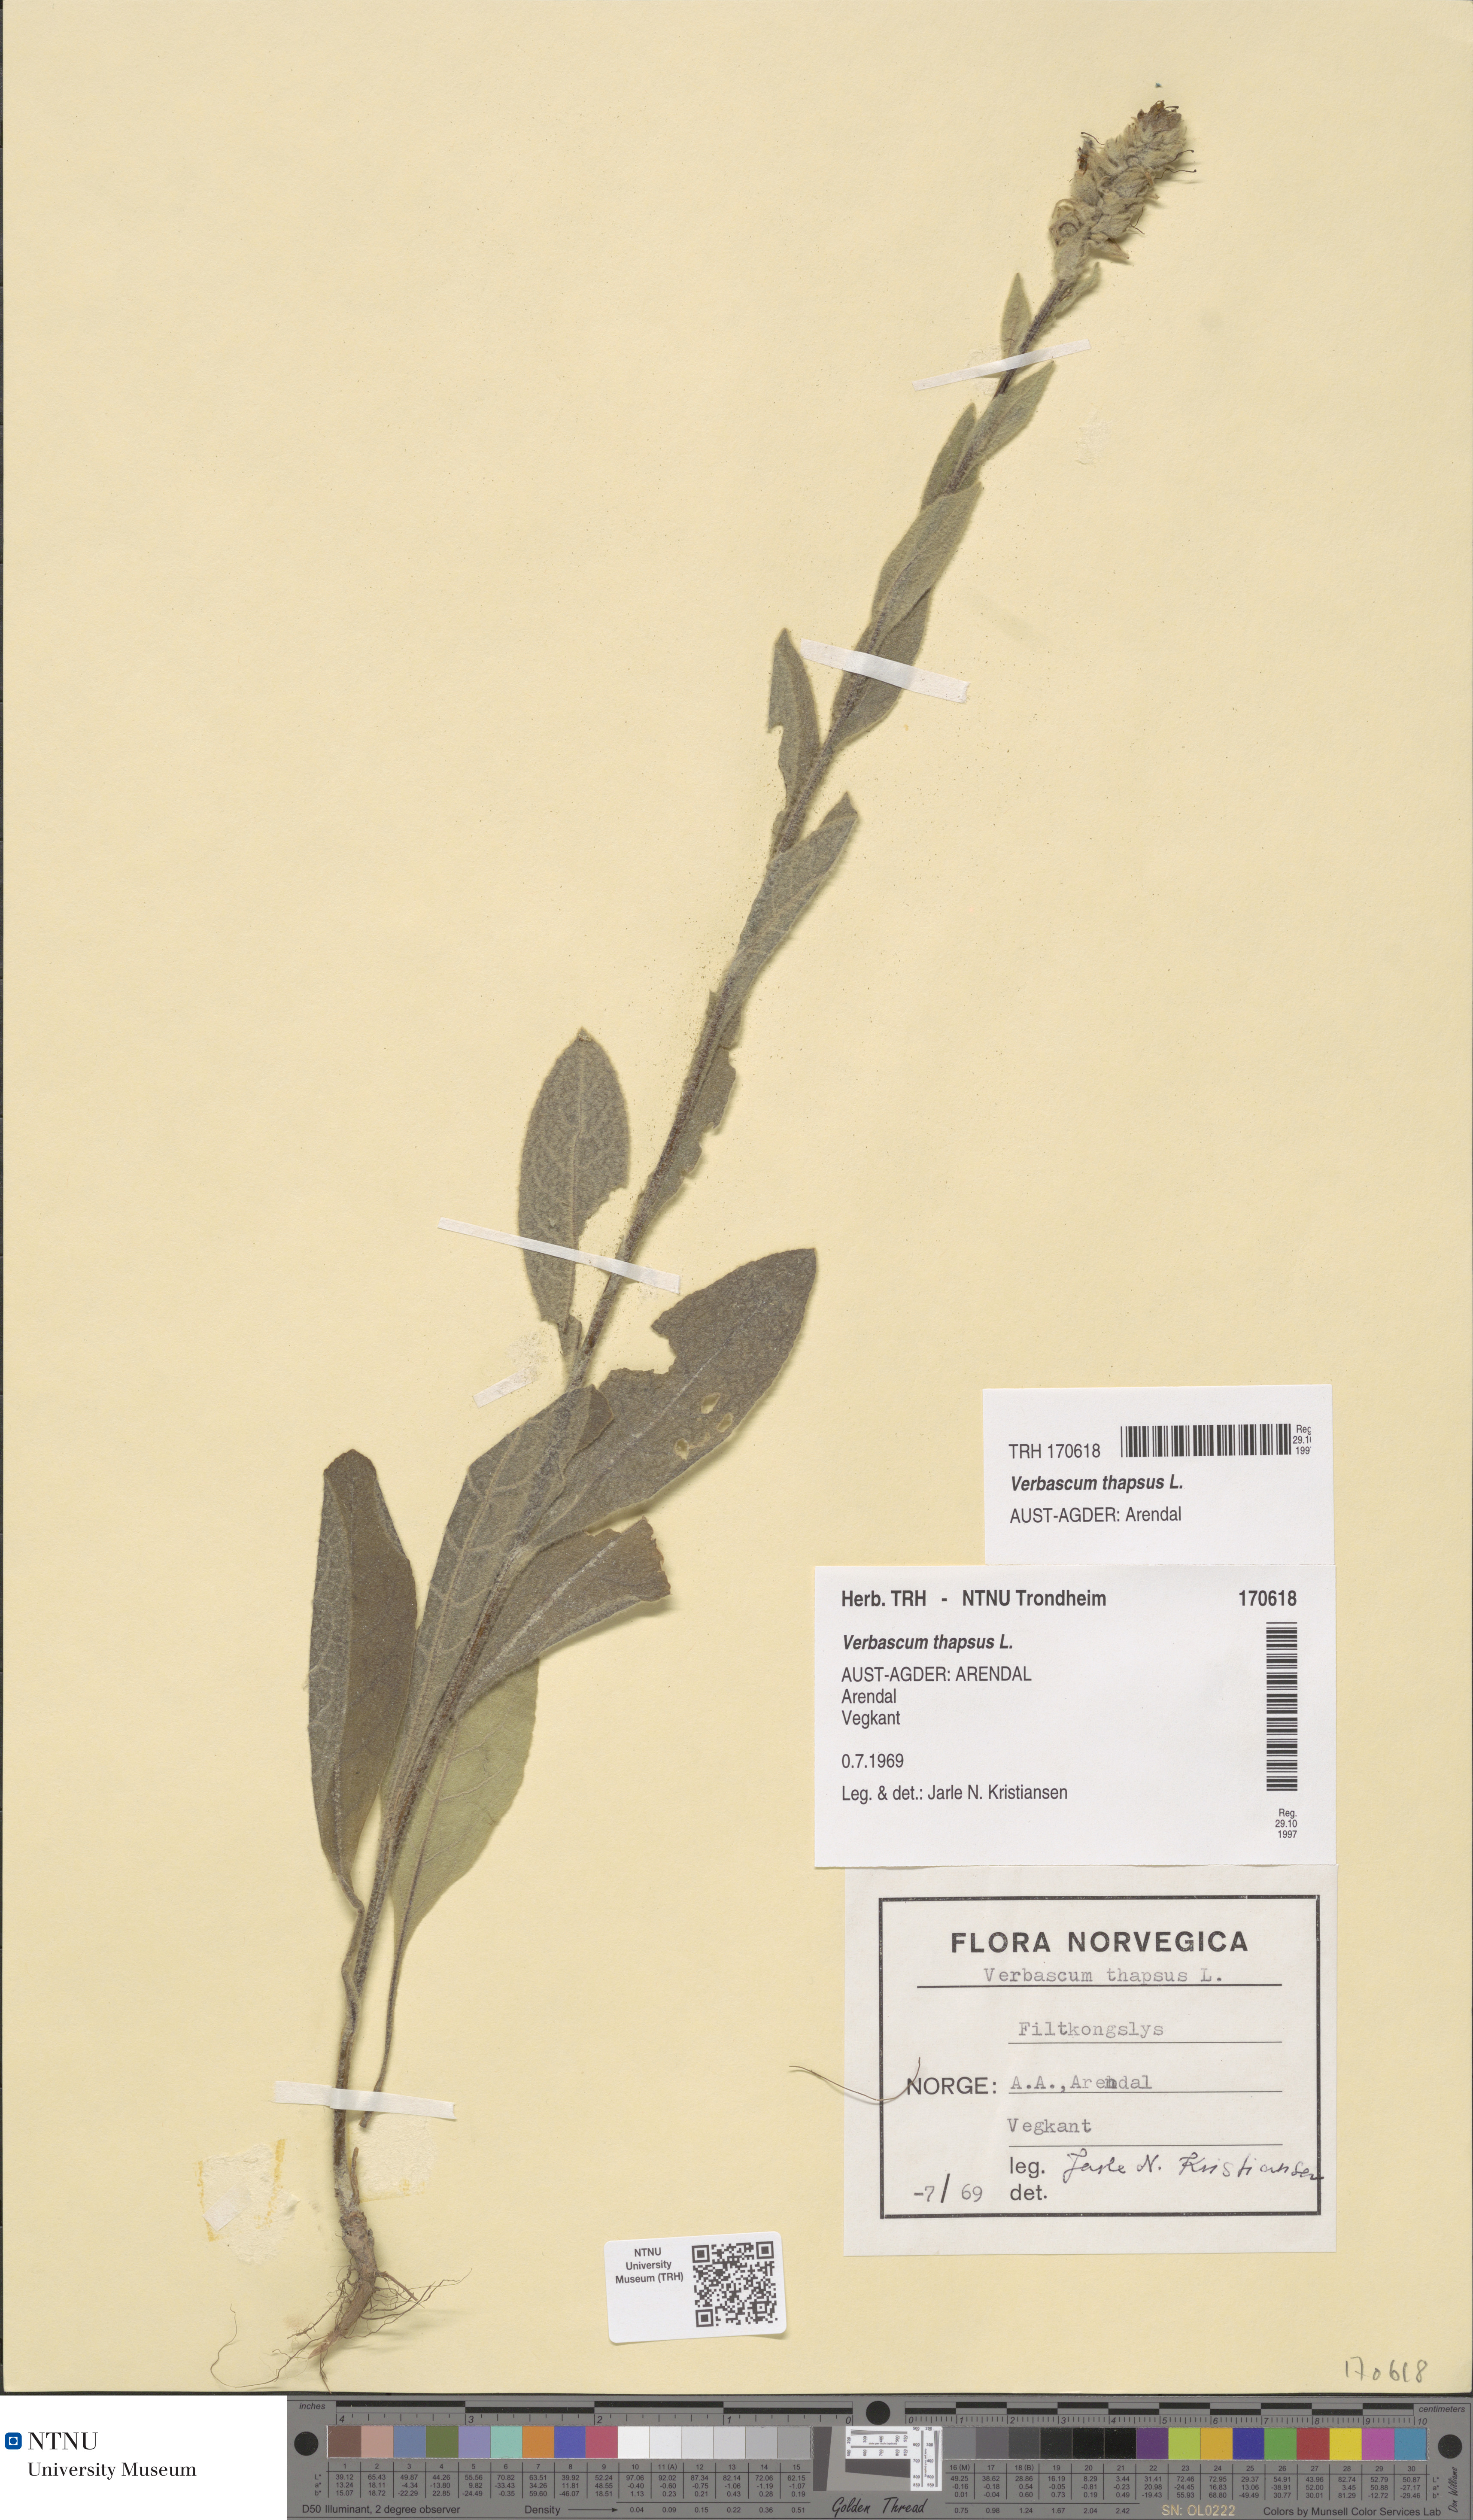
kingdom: Plantae
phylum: Tracheophyta
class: Magnoliopsida
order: Lamiales
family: Scrophulariaceae
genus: Verbascum
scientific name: Verbascum thapsus
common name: Common mullein
